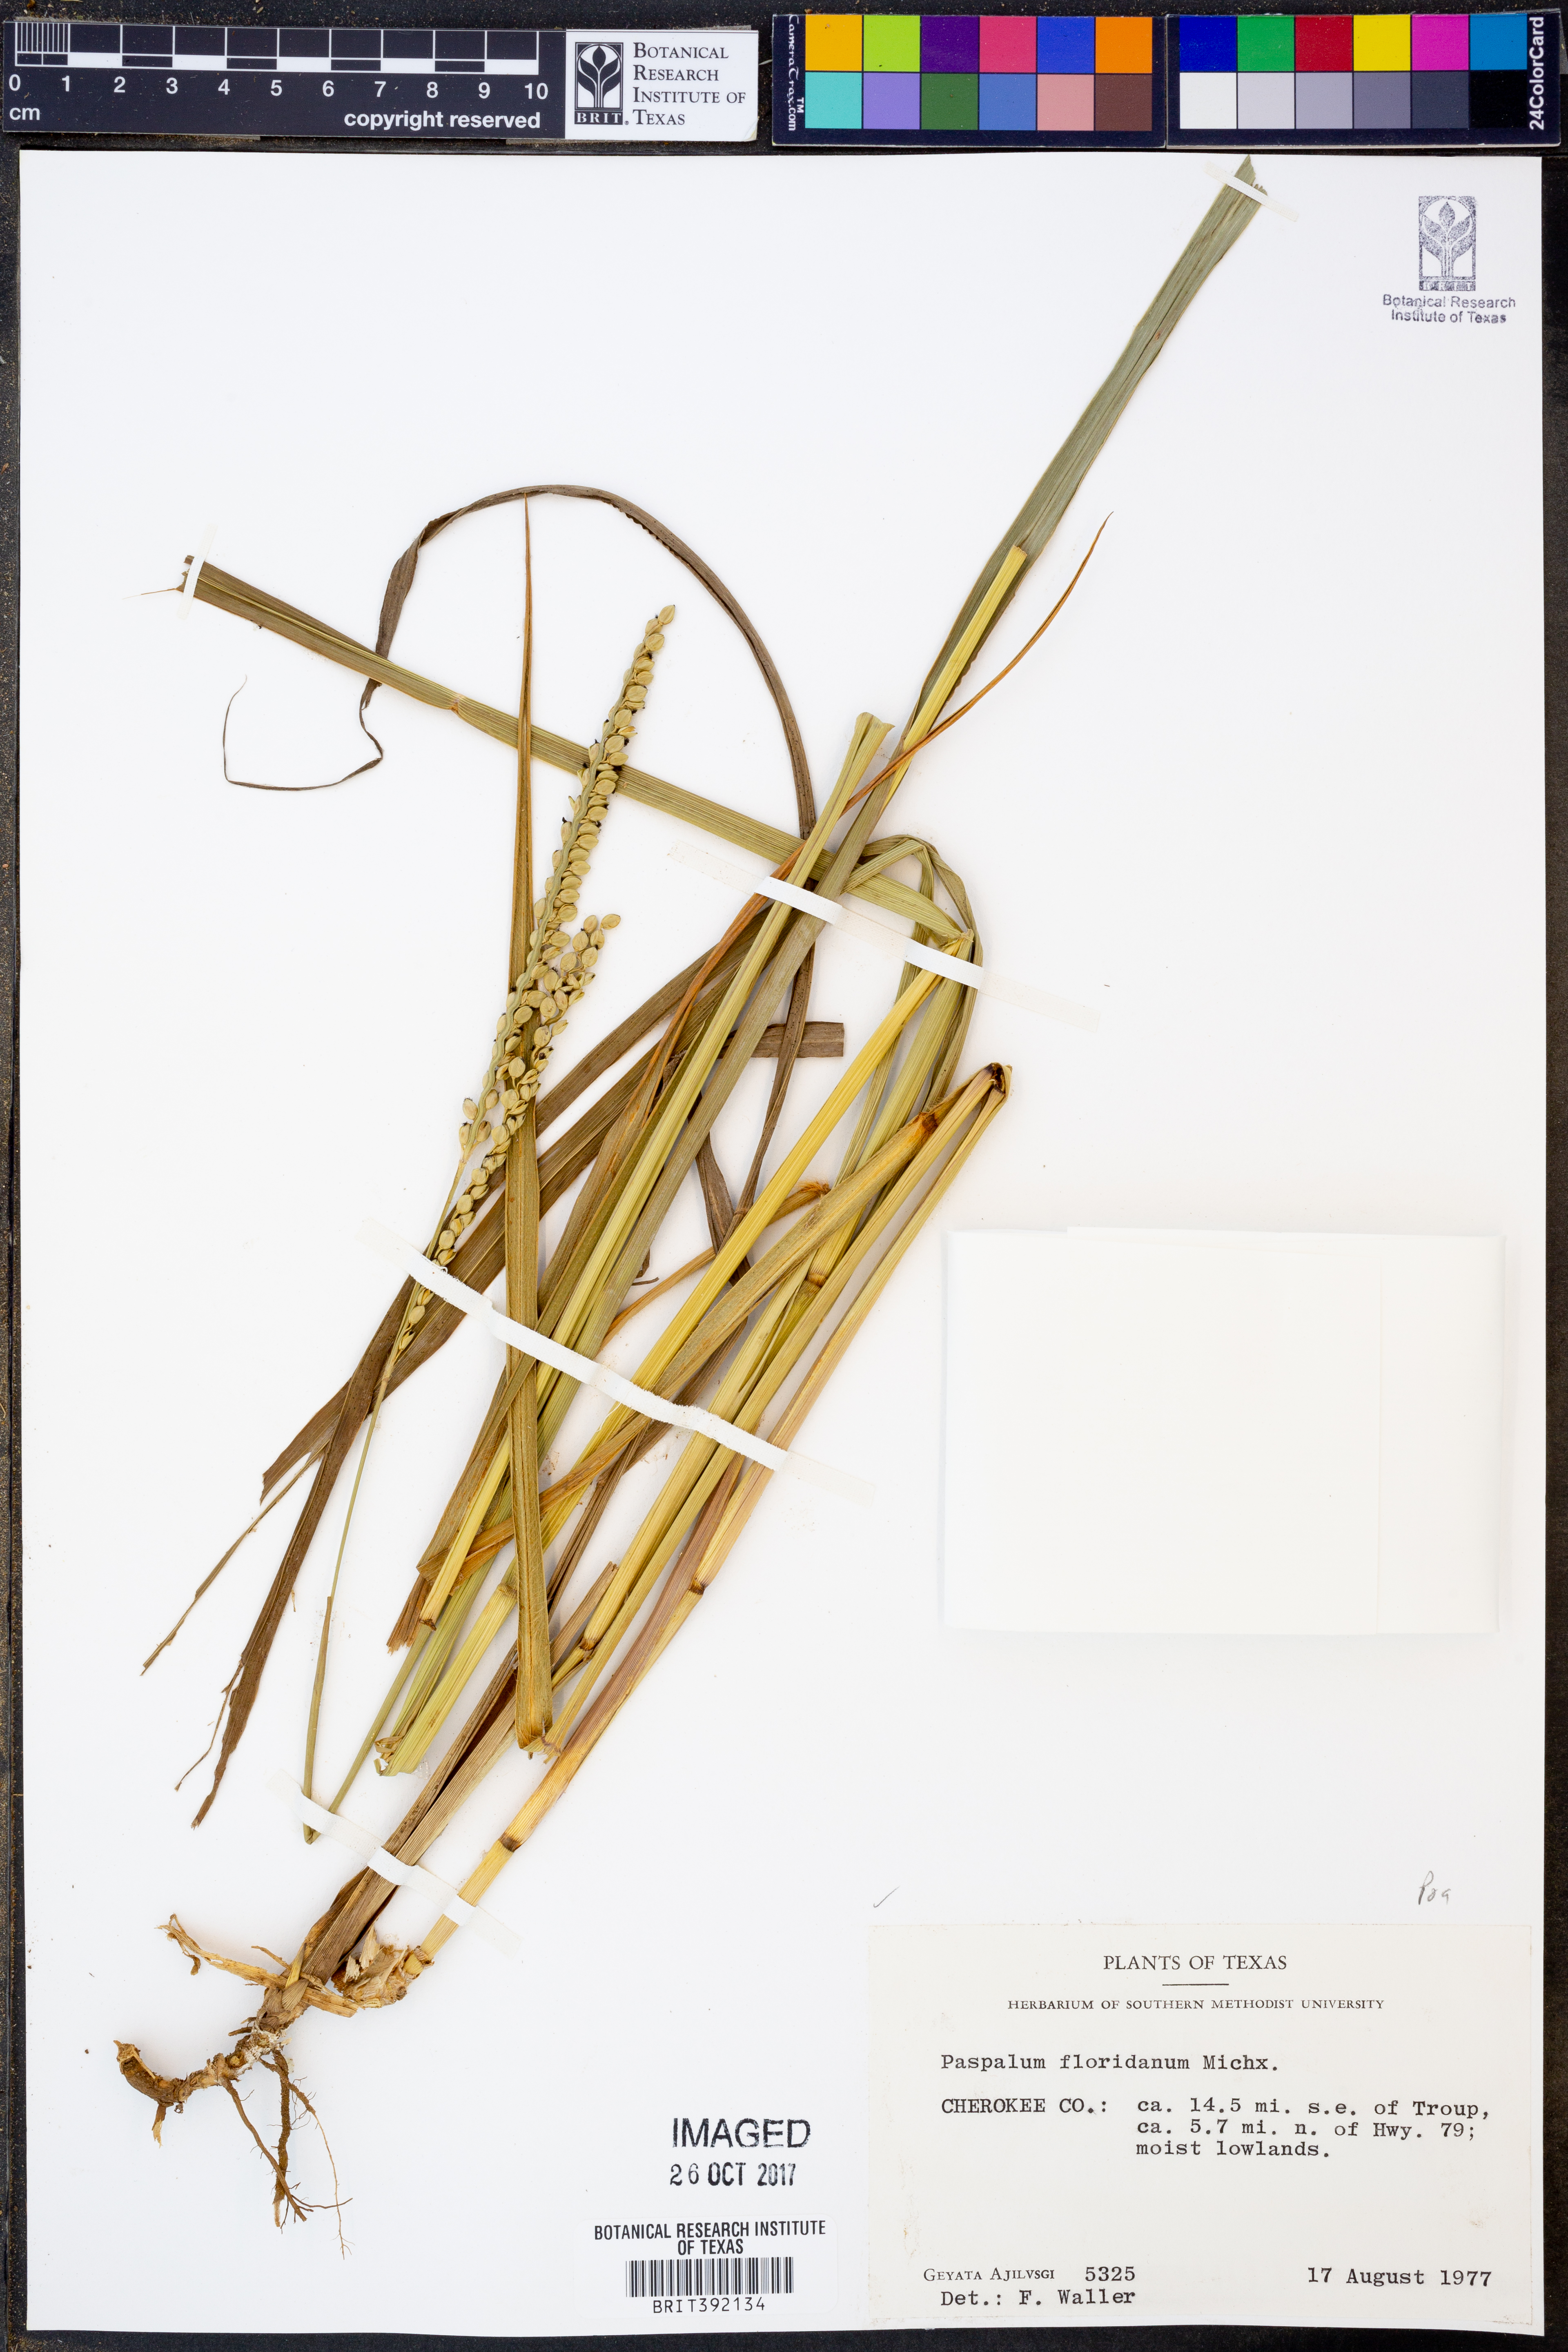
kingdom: Plantae
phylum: Tracheophyta
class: Liliopsida
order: Poales
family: Poaceae
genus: Paspalum
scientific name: Paspalum floridanum
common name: Florida paspalum
